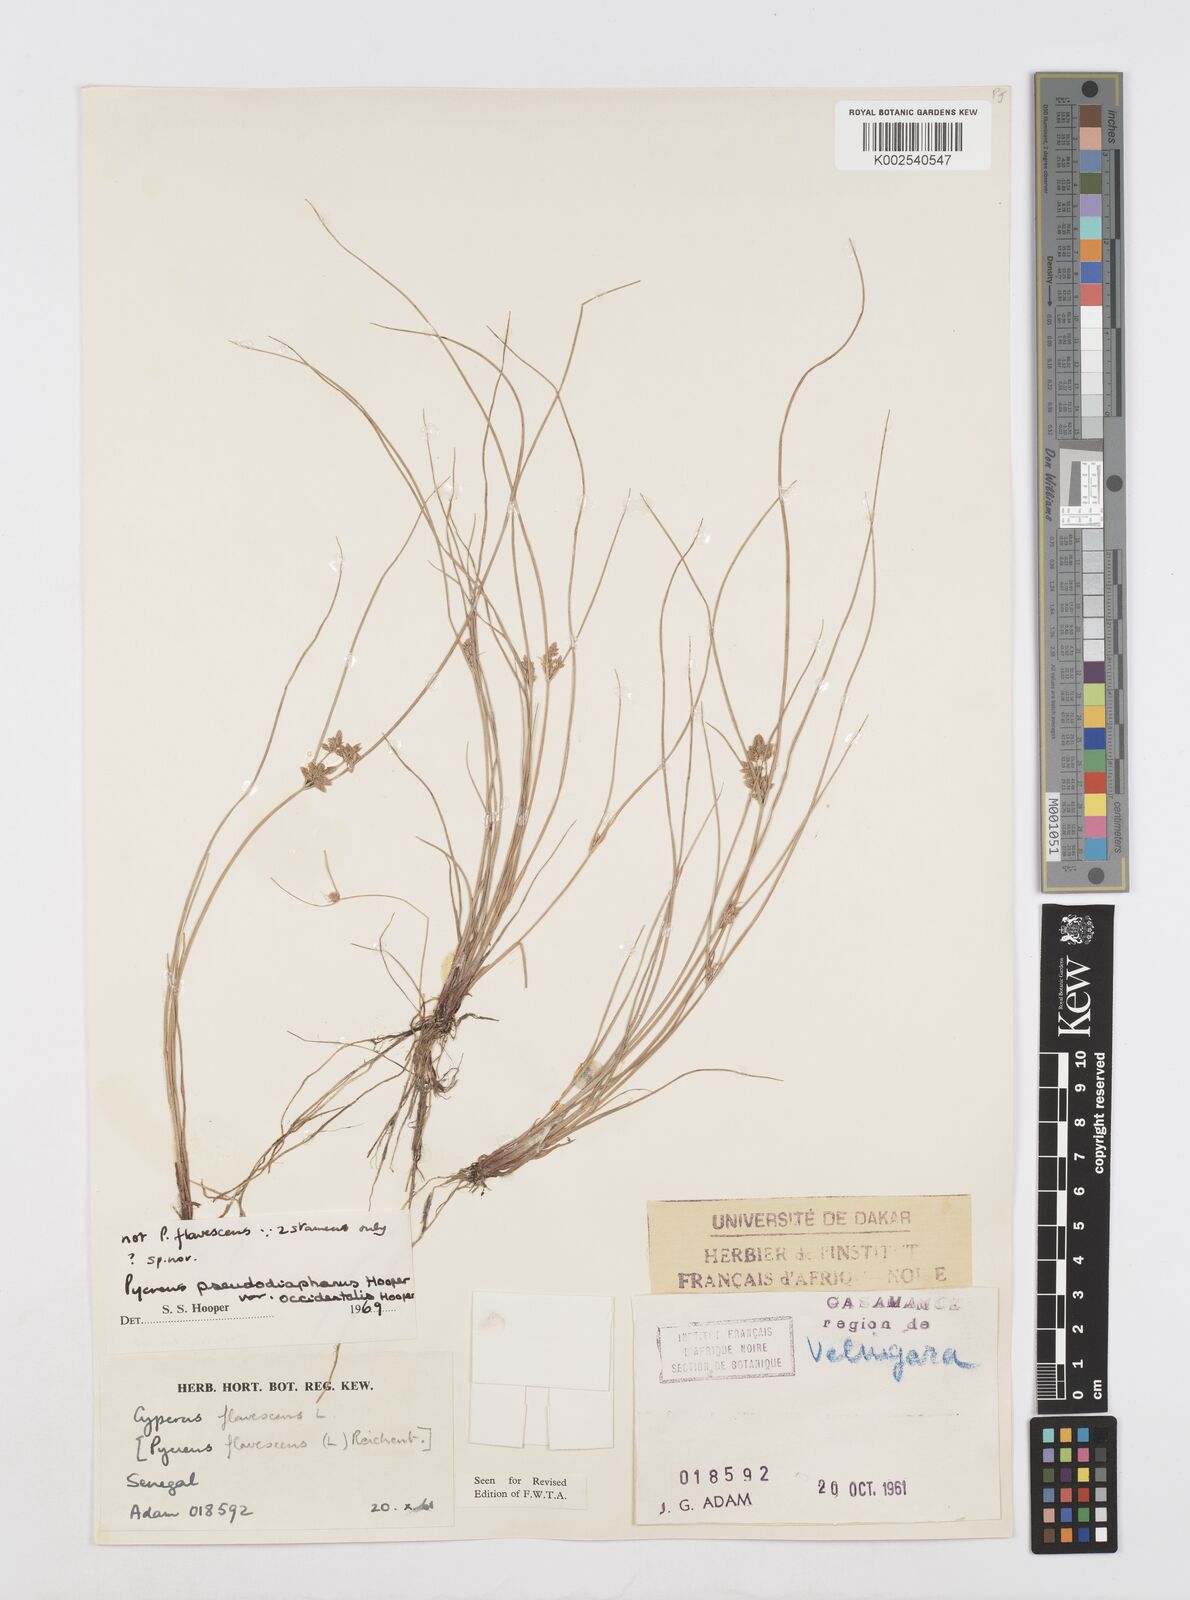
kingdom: Plantae
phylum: Tracheophyta
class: Liliopsida
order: Poales
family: Cyperaceae
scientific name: Cyperaceae
